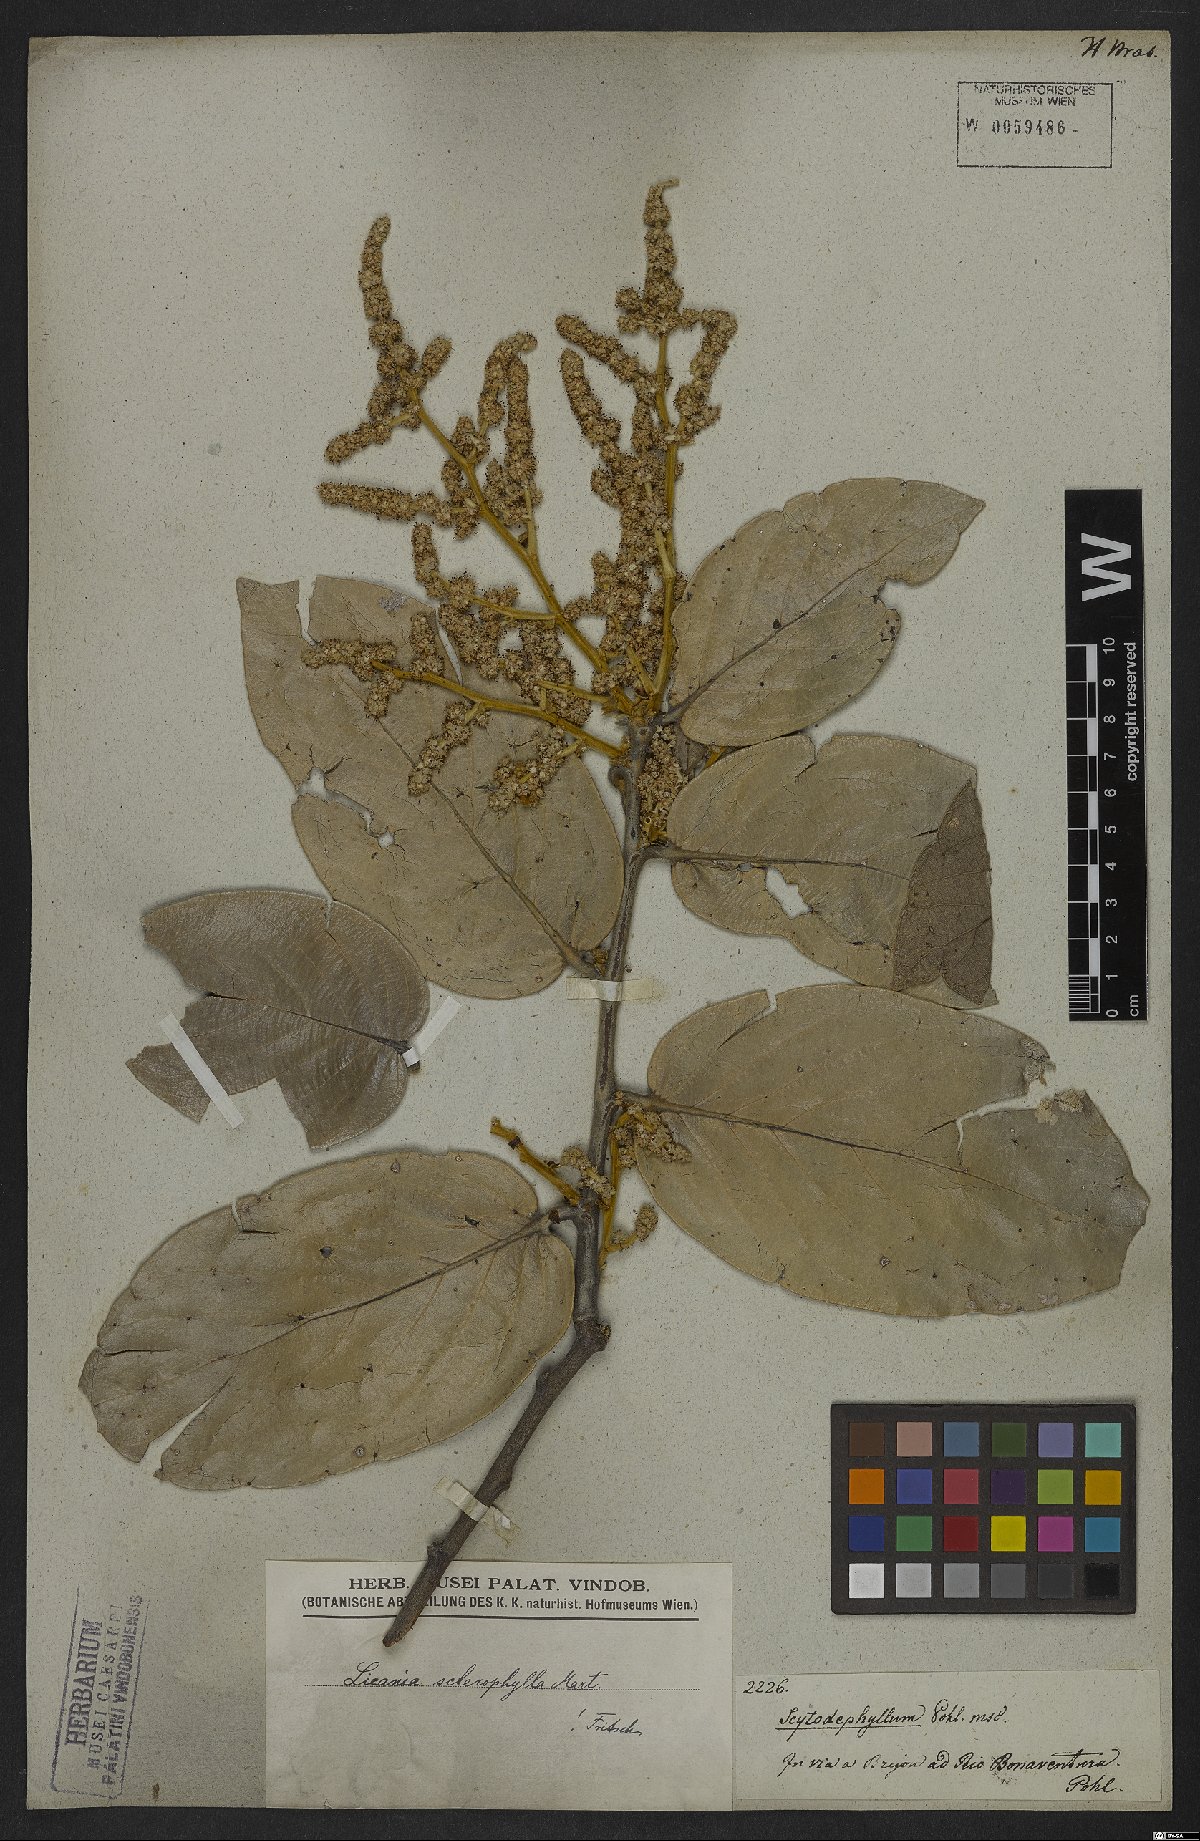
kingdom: Plantae
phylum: Tracheophyta
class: Magnoliopsida
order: Malpighiales
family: Chrysobalanaceae
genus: Leptobalanus
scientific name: Leptobalanus sclerophyllus
